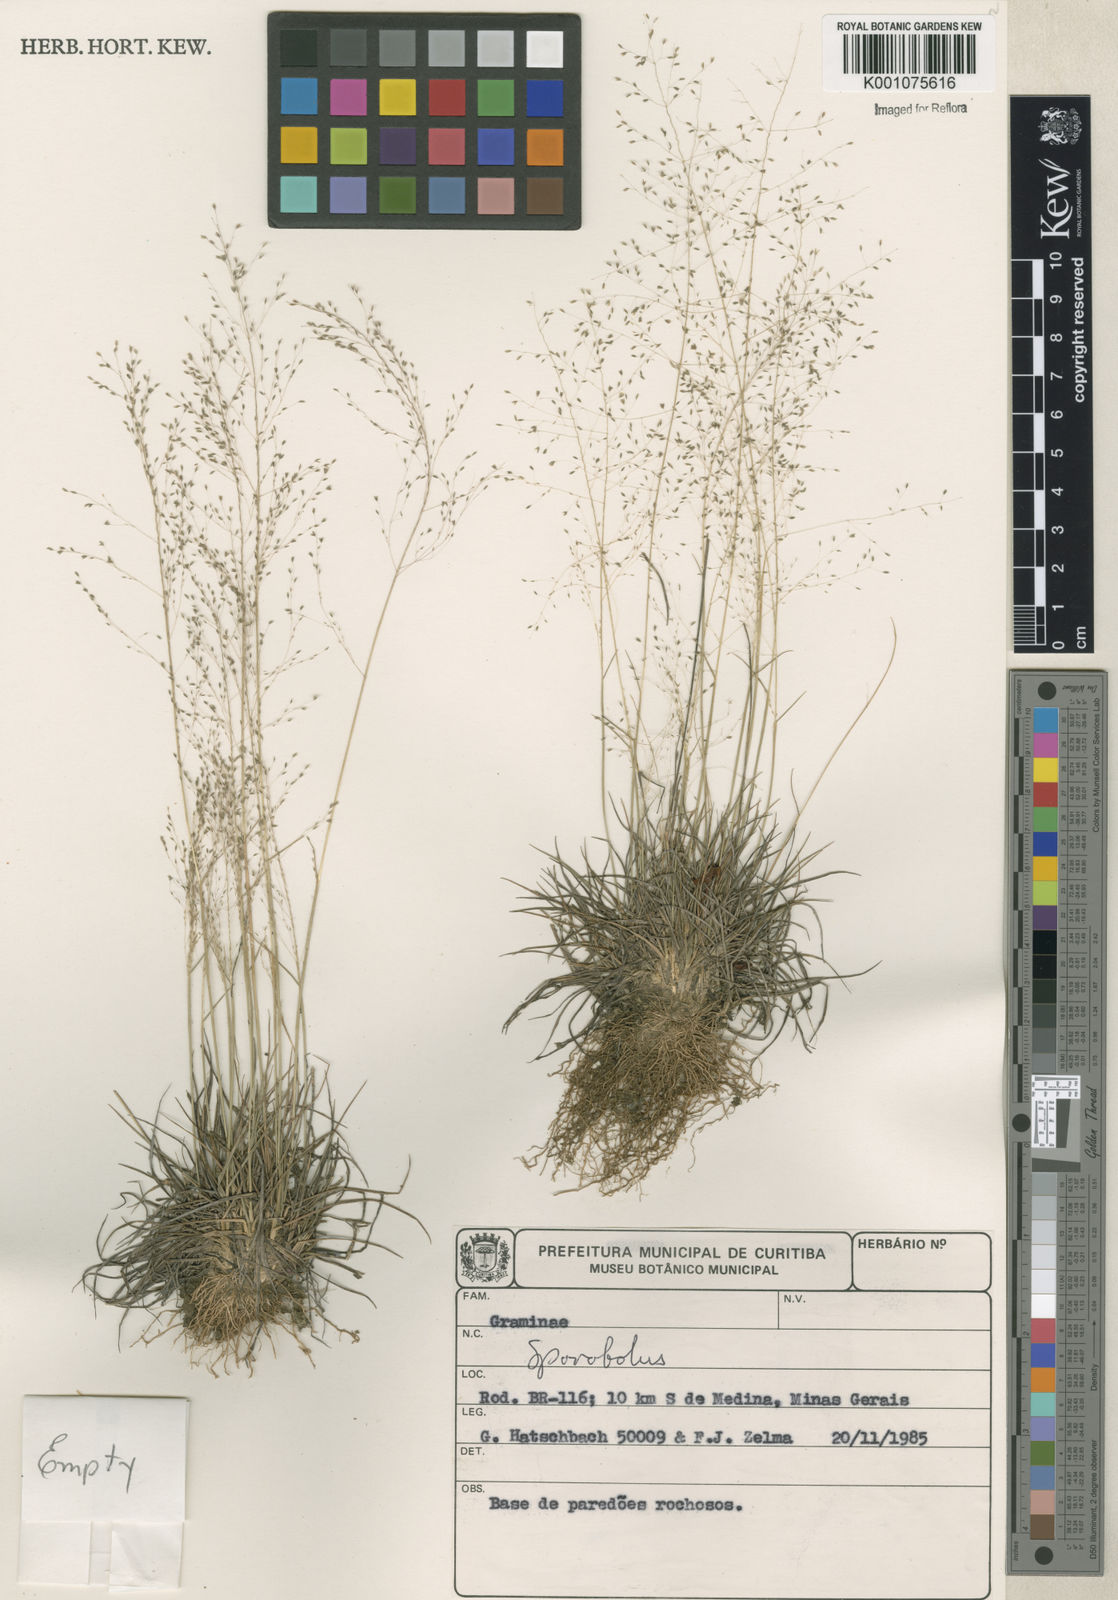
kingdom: Plantae
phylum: Tracheophyta
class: Liliopsida
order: Poales
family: Poaceae
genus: Sporobolus
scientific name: Sporobolus
